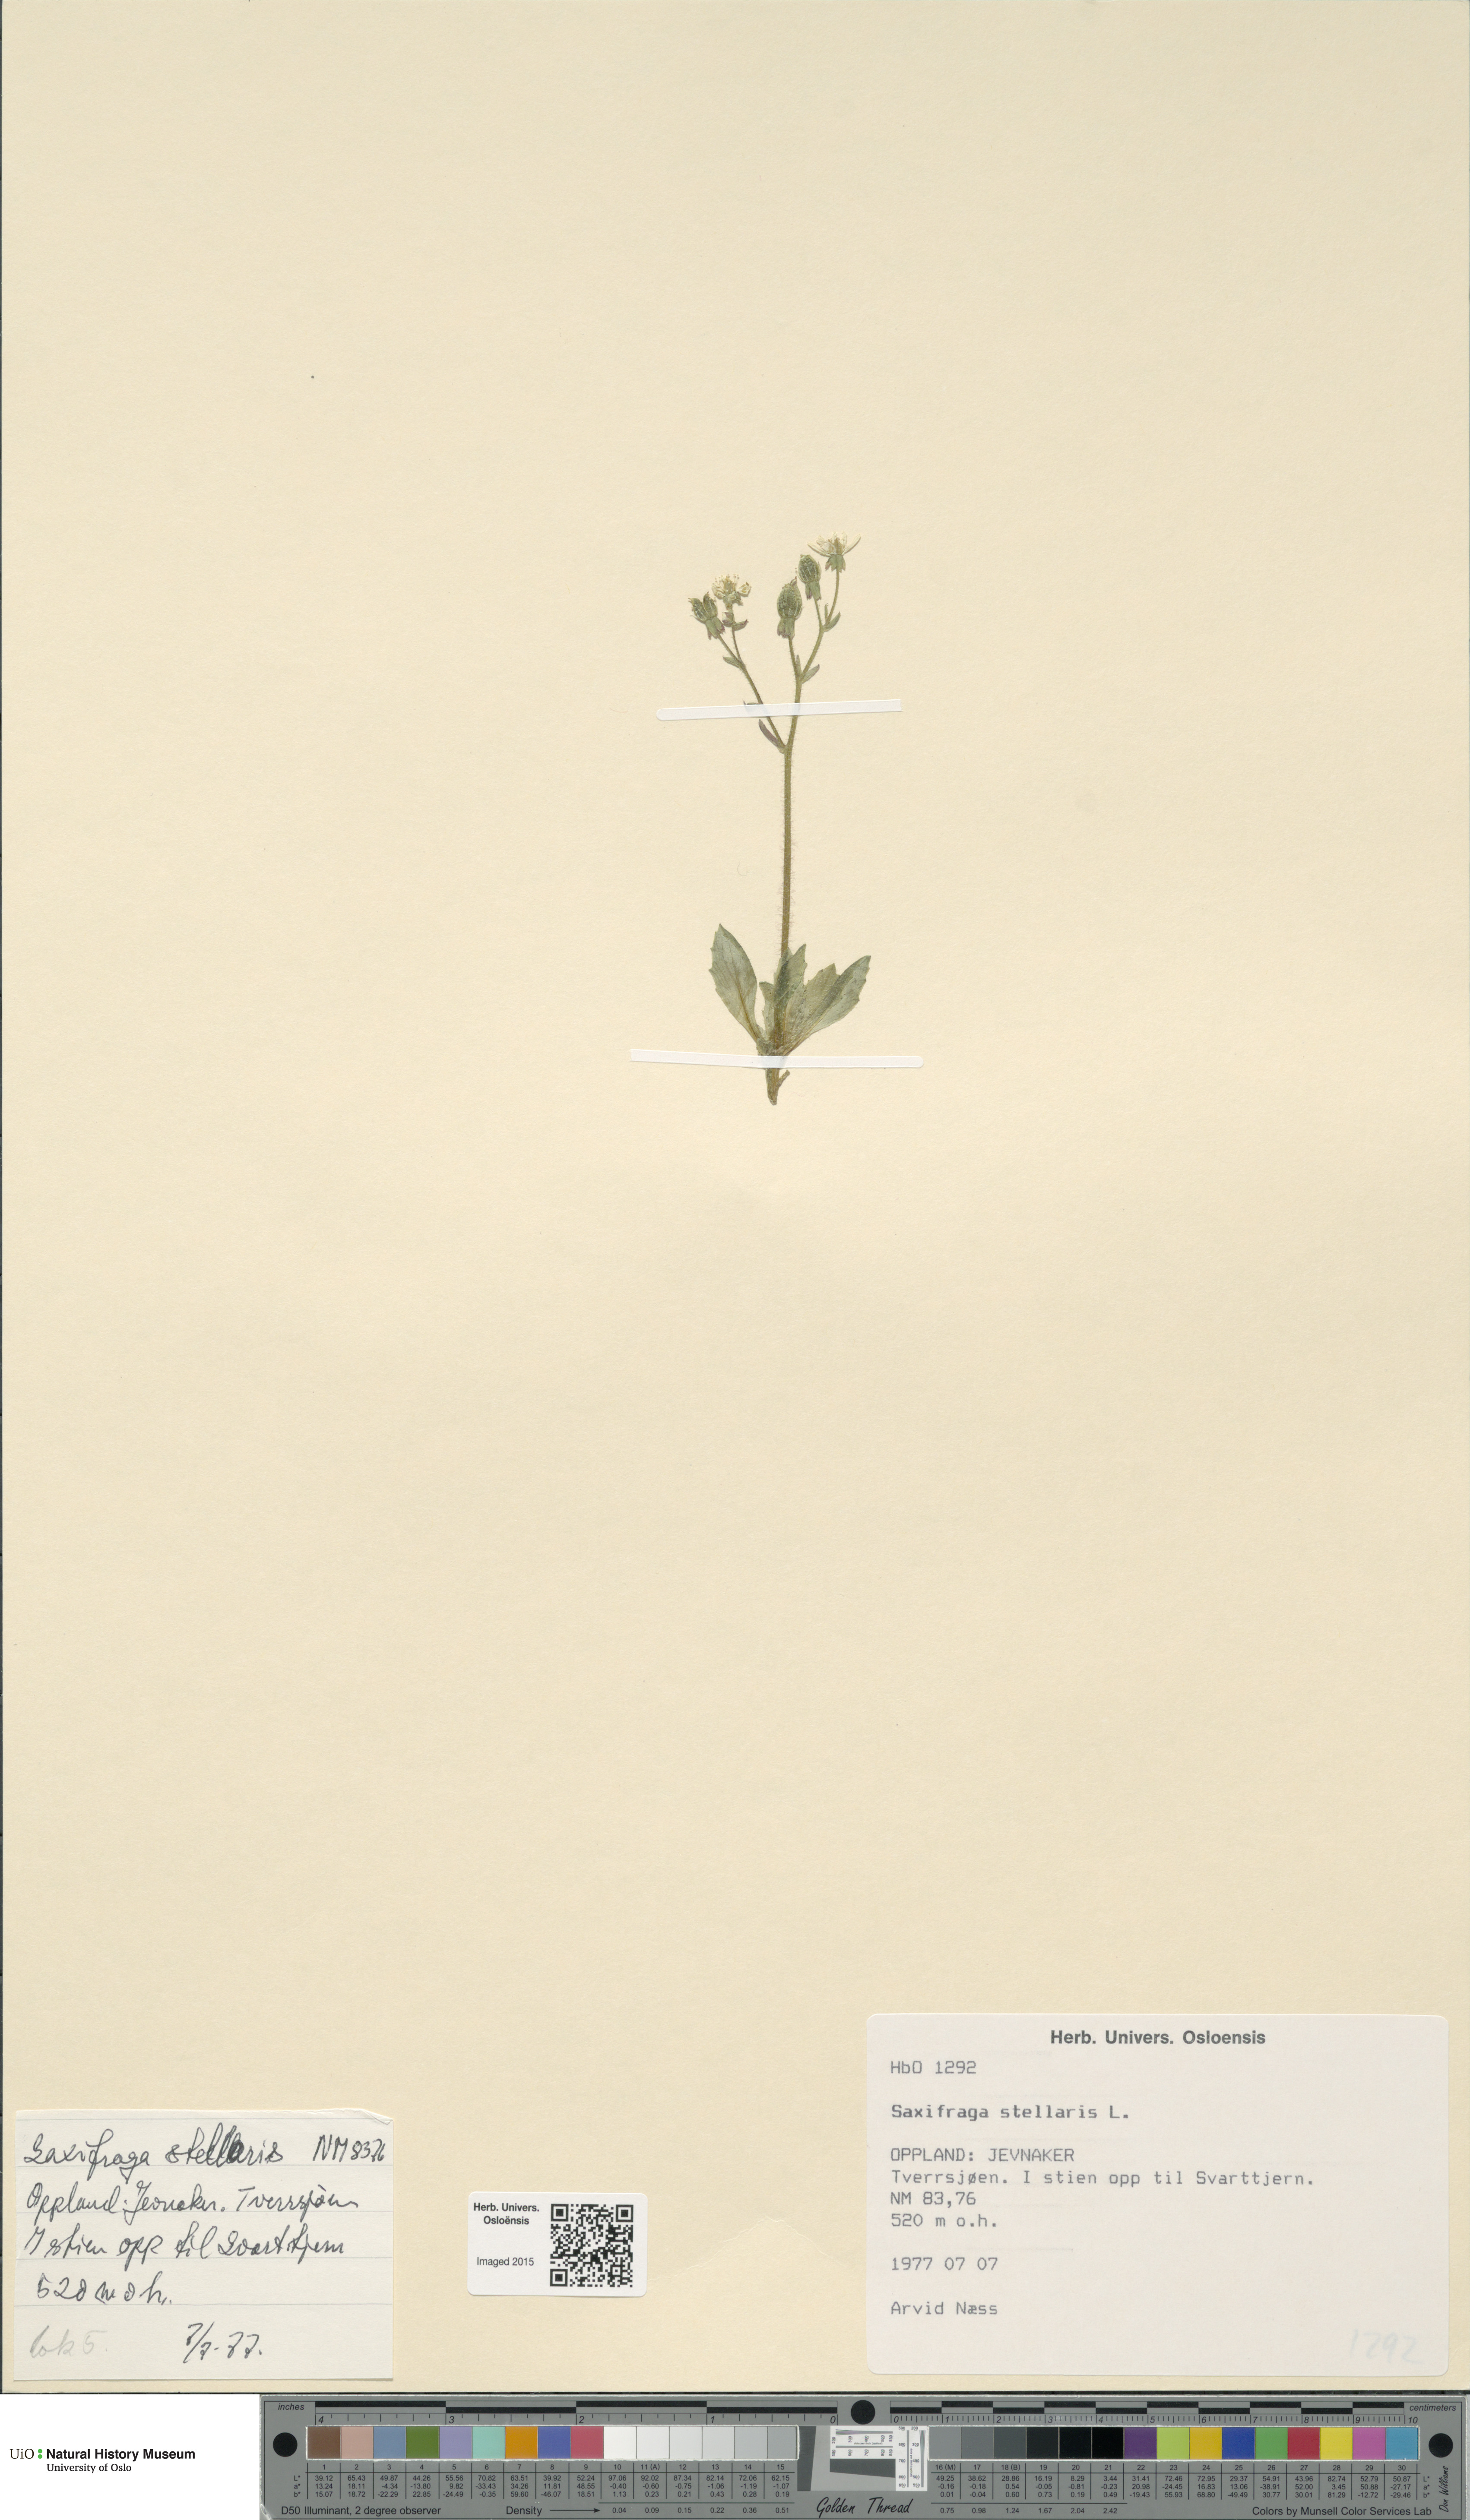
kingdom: Plantae
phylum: Tracheophyta
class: Magnoliopsida
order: Saxifragales
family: Saxifragaceae
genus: Micranthes
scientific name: Micranthes stellaris
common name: Starry saxifrage
